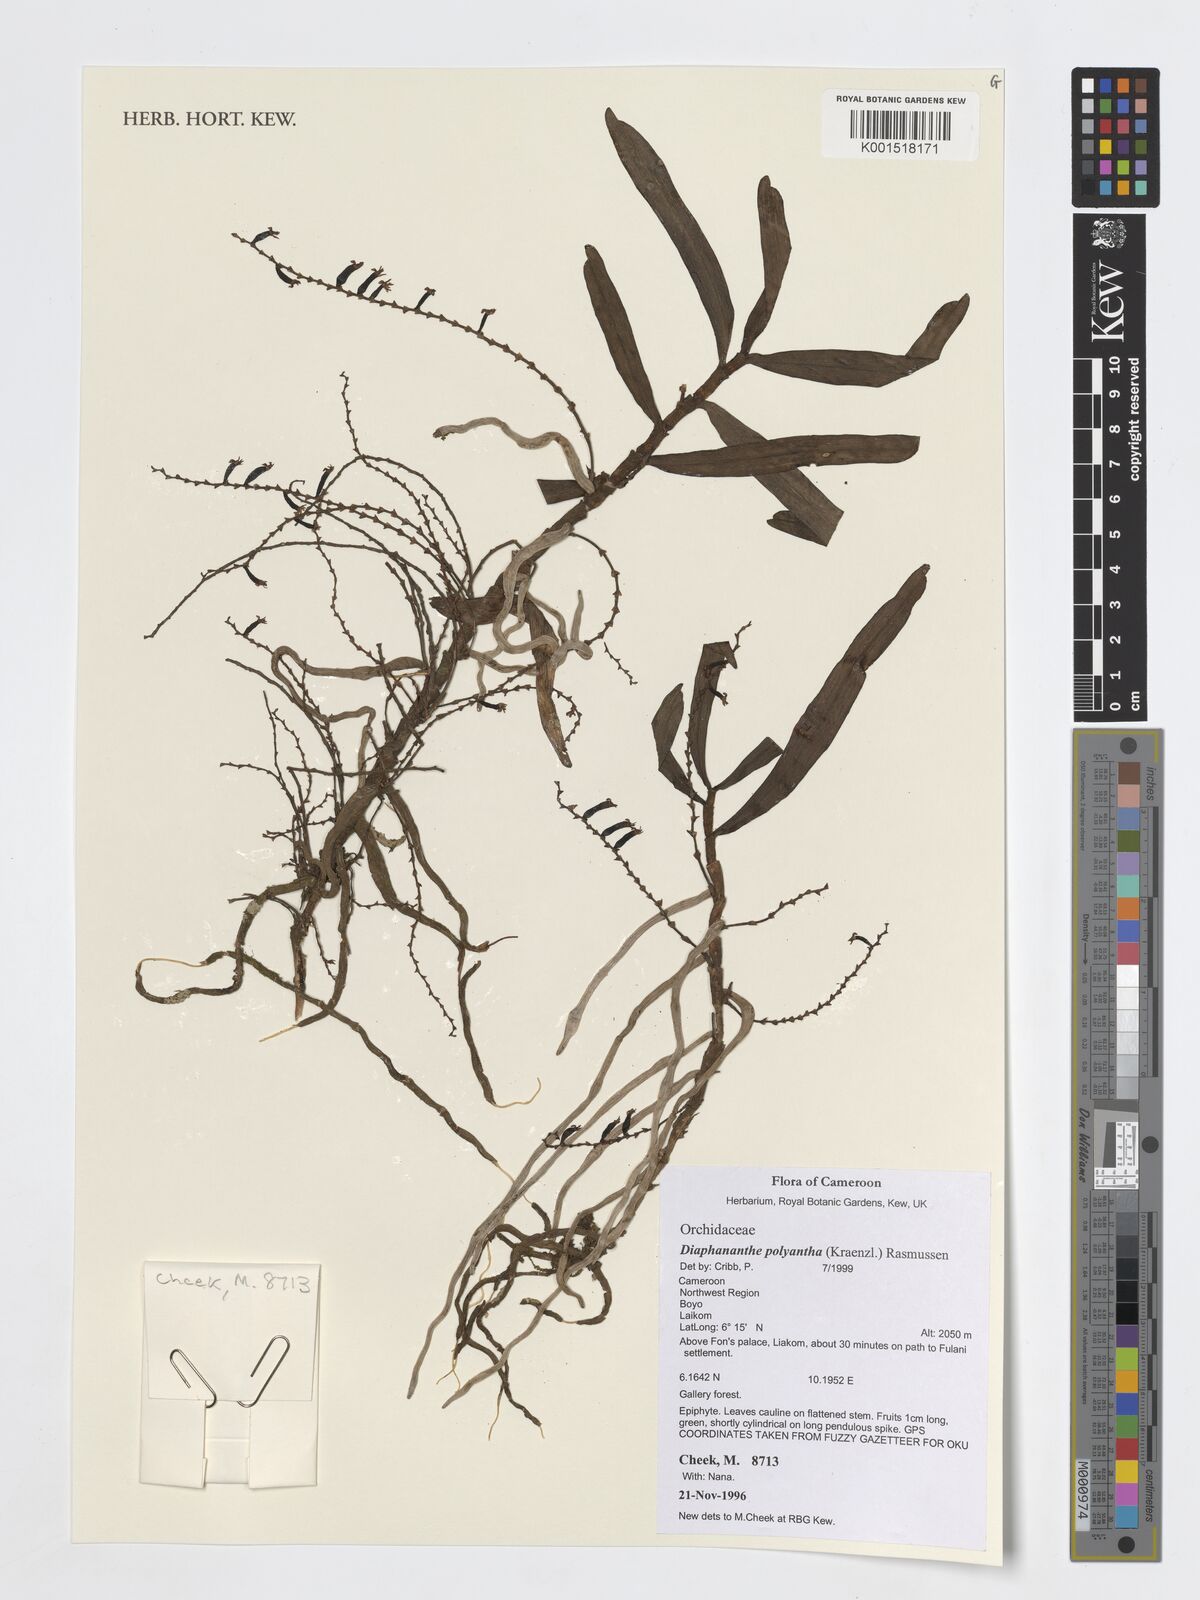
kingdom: Plantae
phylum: Tracheophyta
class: Liliopsida
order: Asparagales
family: Orchidaceae
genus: Rhipidoglossum
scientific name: Rhipidoglossum polyanthum
